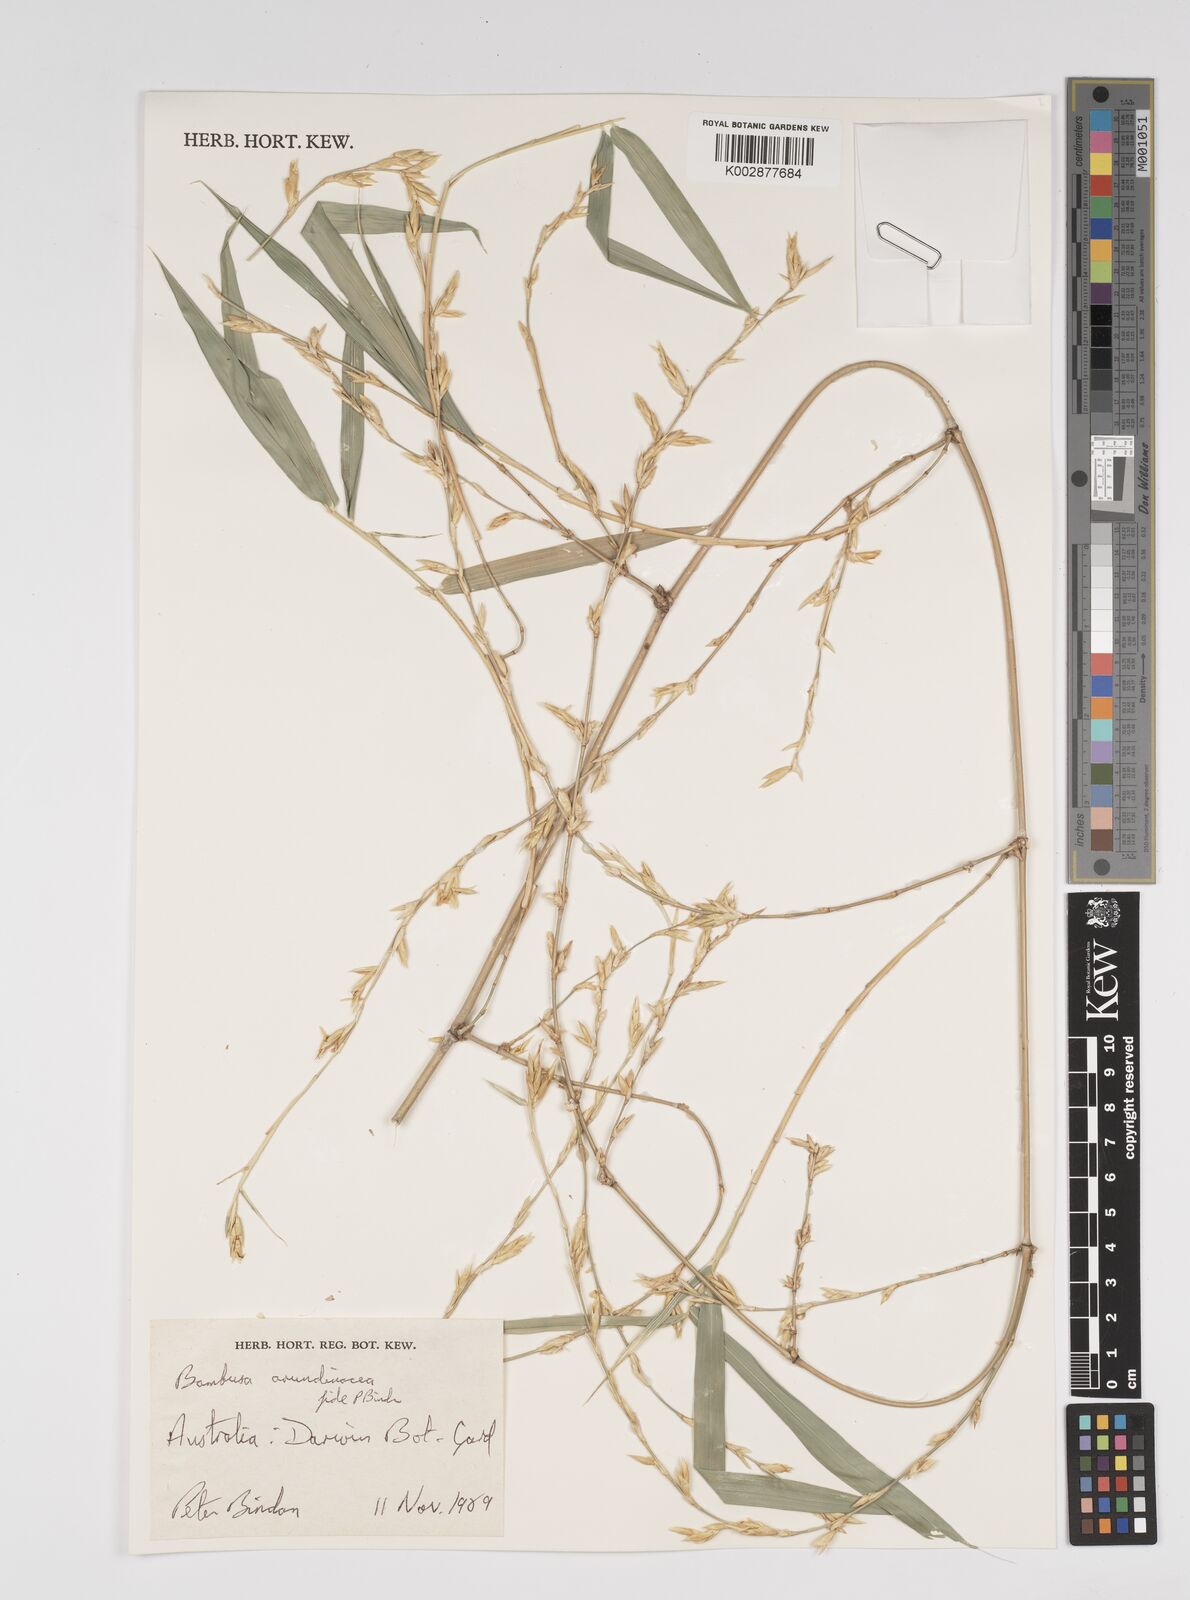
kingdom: Plantae
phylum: Tracheophyta
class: Liliopsida
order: Poales
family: Poaceae
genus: Bambusa
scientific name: Bambusa
